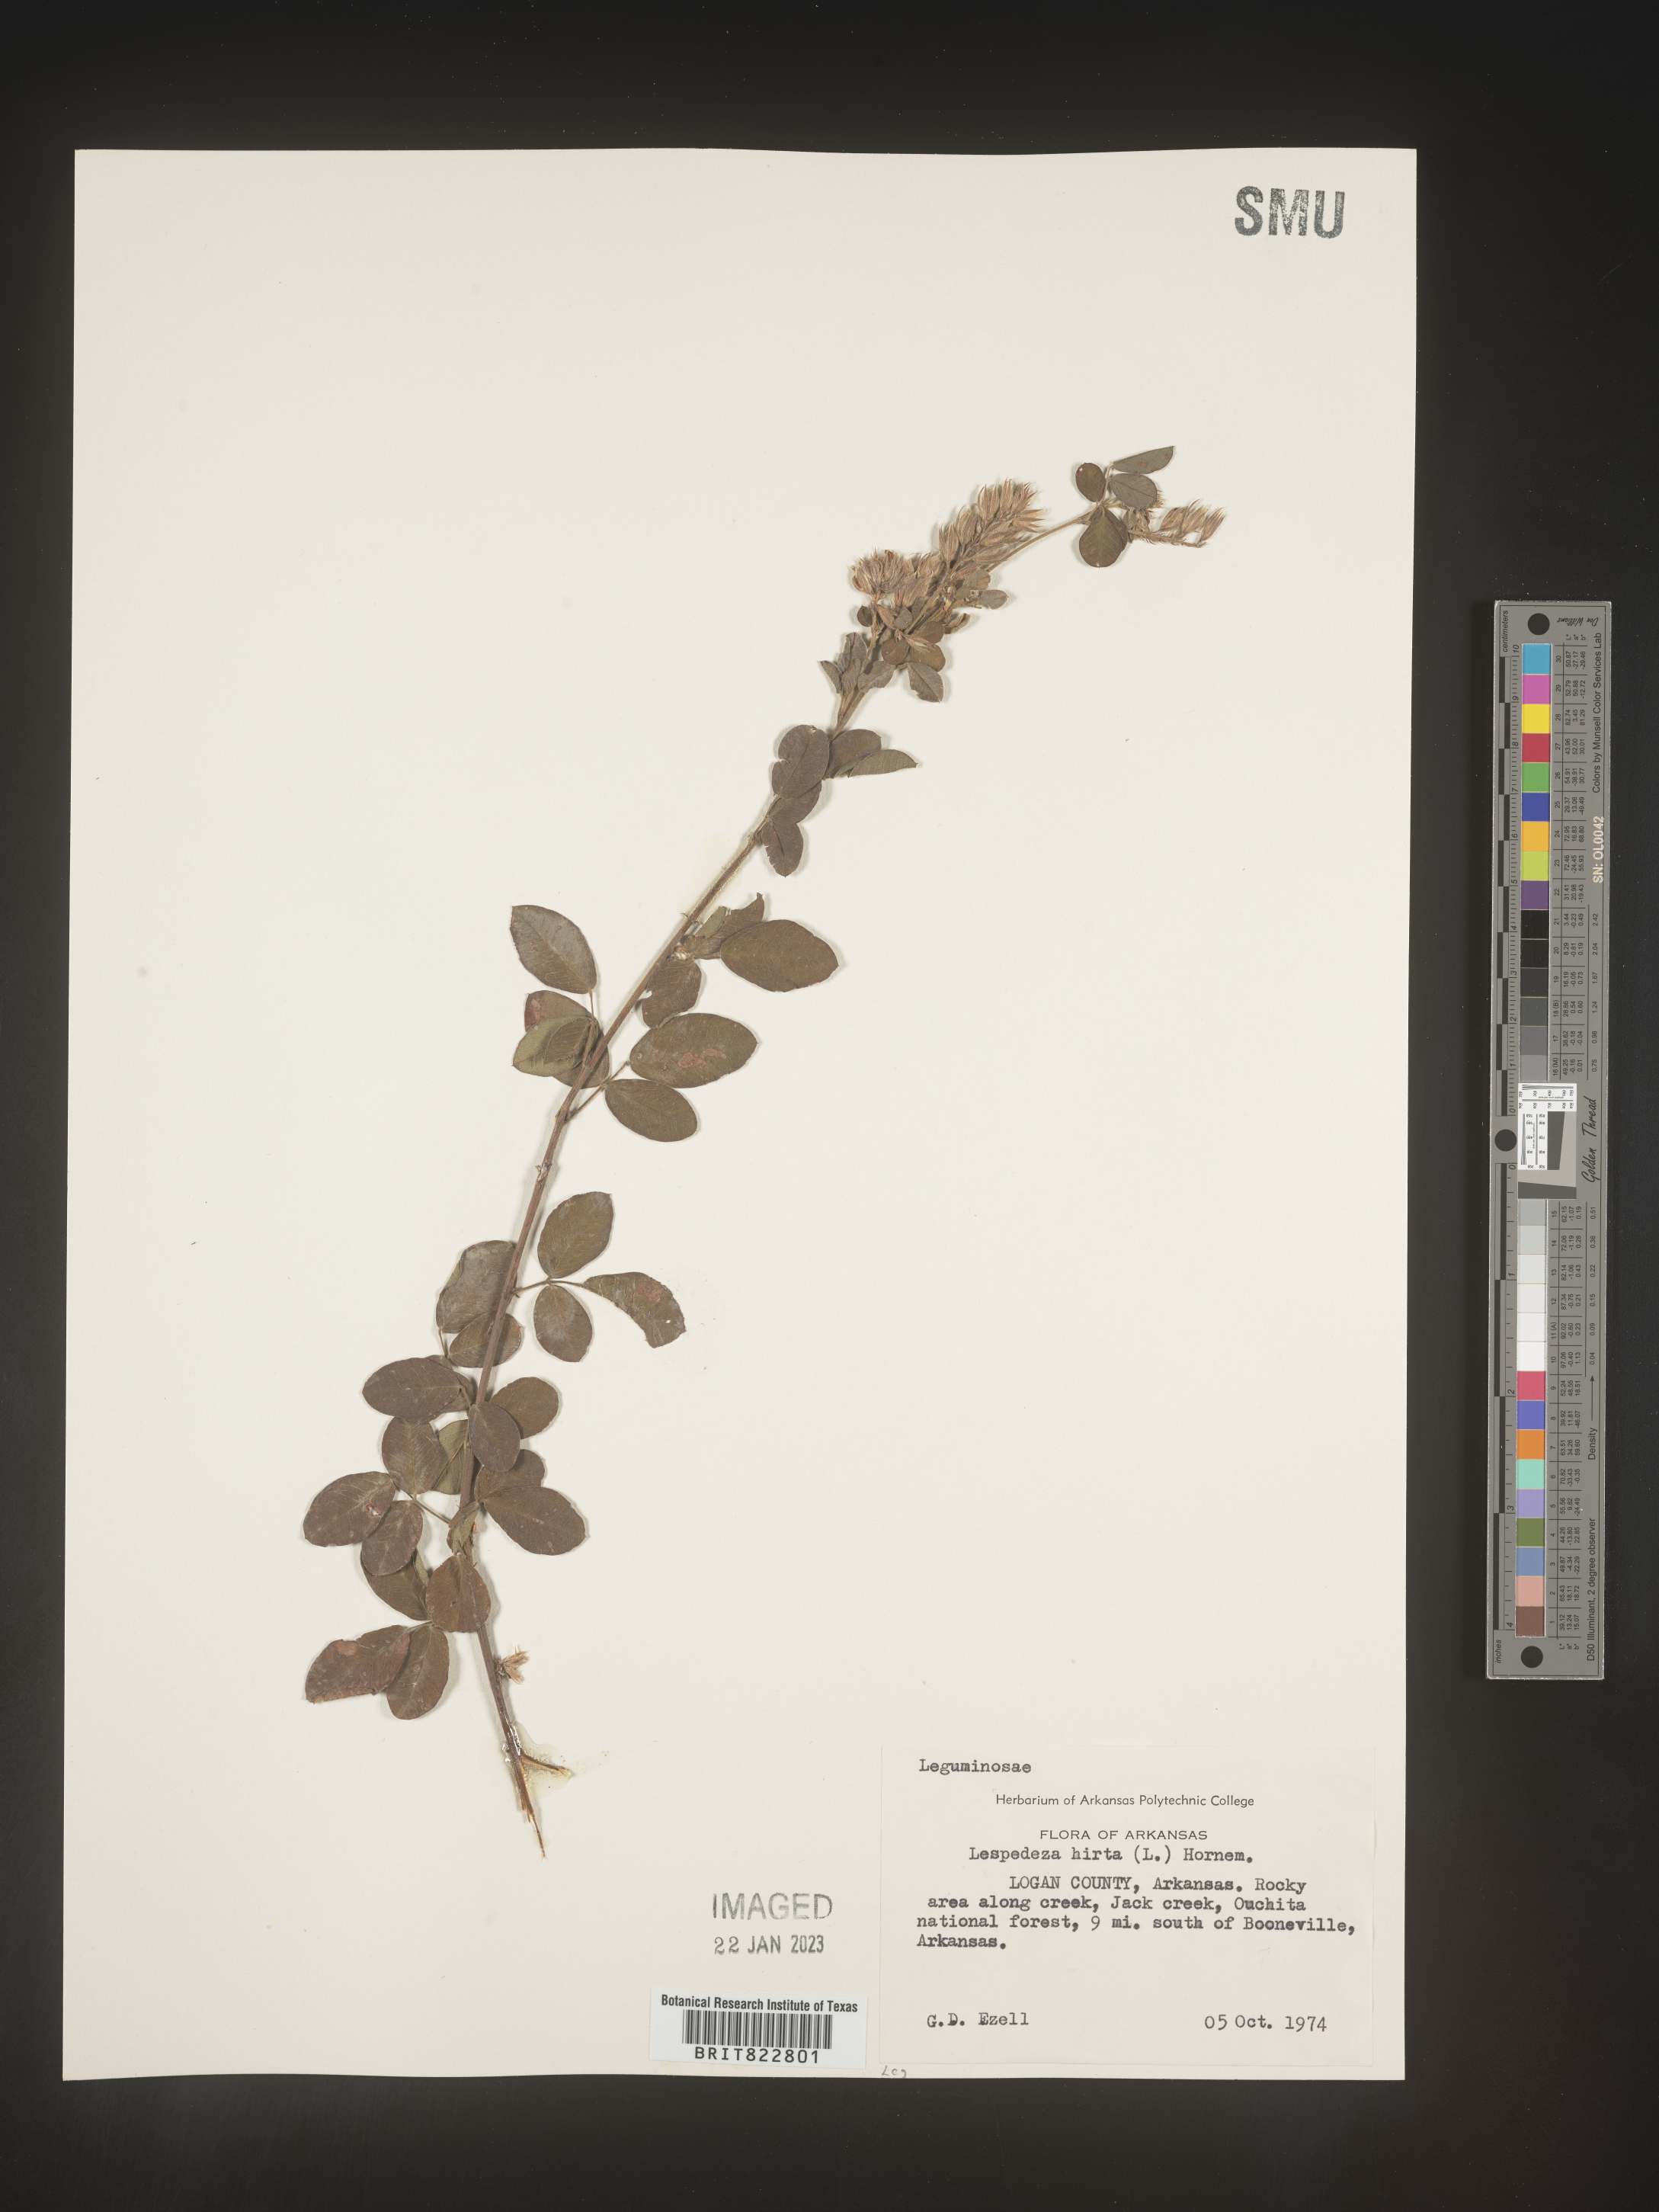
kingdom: Plantae
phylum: Tracheophyta
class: Magnoliopsida
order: Fabales
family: Fabaceae
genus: Lespedeza
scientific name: Lespedeza hirta
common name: Hairy lespedeza
